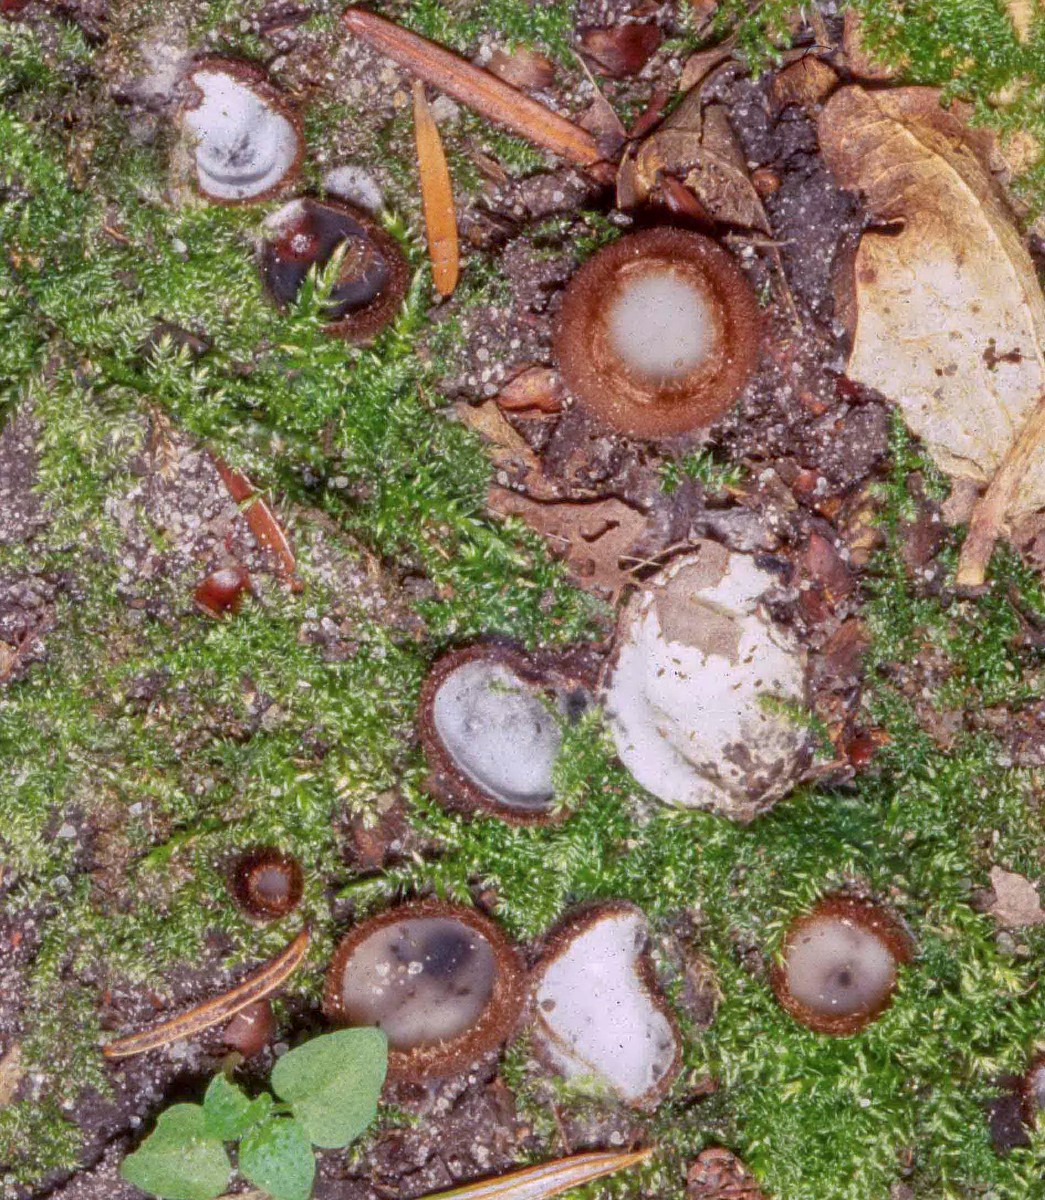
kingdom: Fungi
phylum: Ascomycota
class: Sordariomycetes
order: Hypocreales
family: Hypocreaceae
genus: Hypomyces
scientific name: Hypomyces stephanomatis
